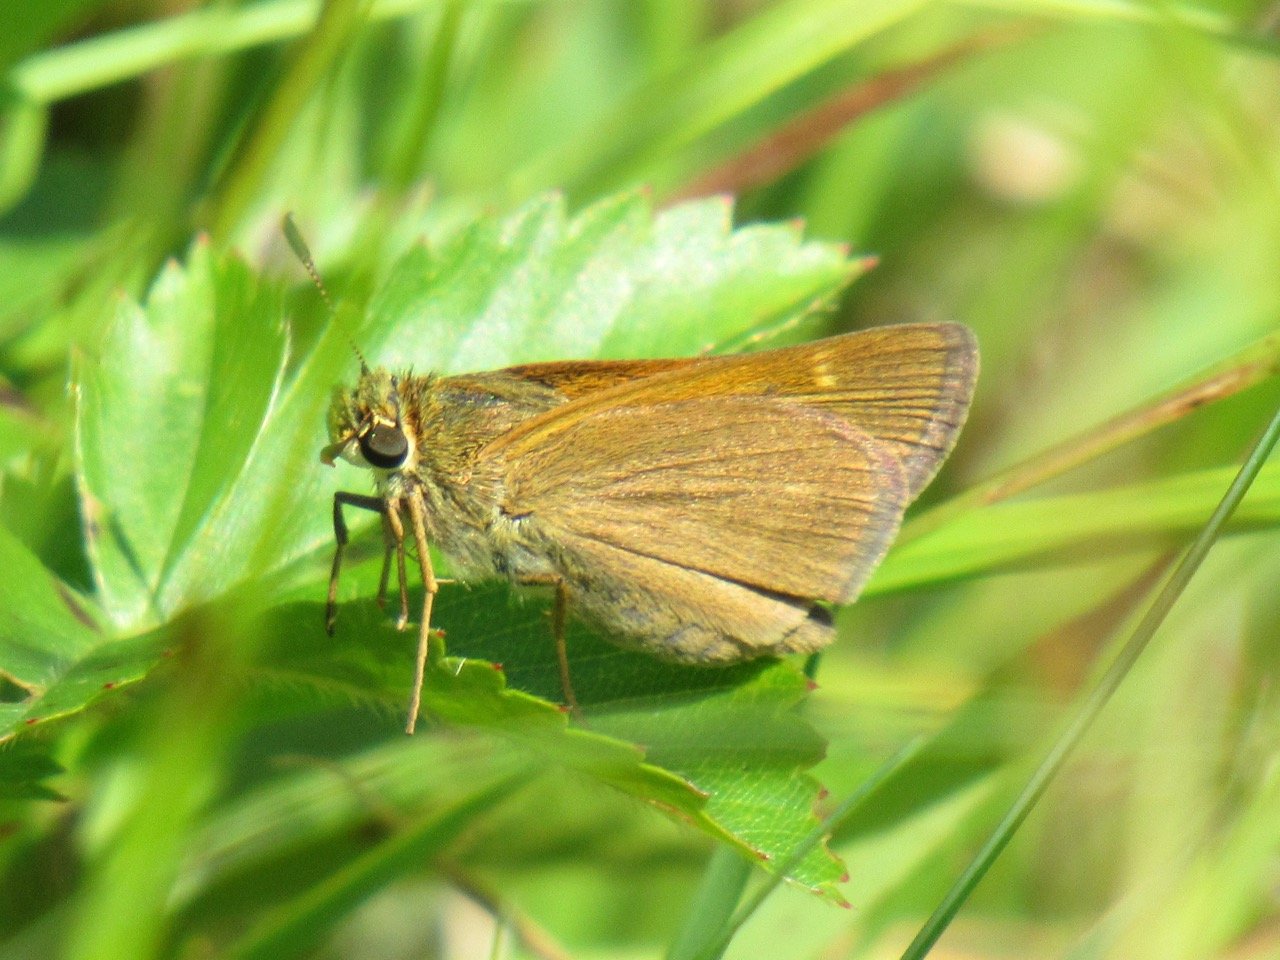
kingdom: Animalia
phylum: Arthropoda
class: Insecta
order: Lepidoptera
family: Hesperiidae
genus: Polites
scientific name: Polites themistocles
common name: Tawny-edged Skipper
